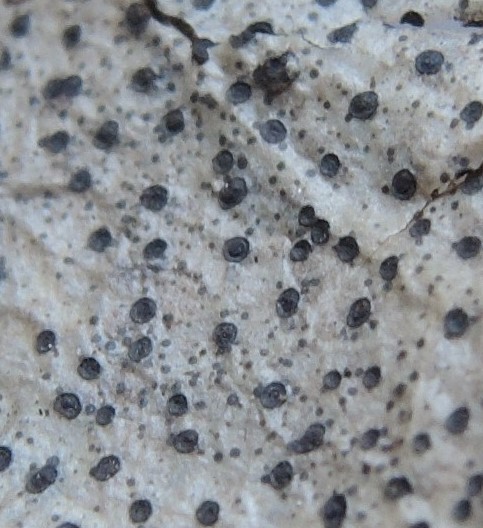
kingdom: Fungi
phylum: Ascomycota
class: Dothideomycetes
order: Microthyriales
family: Microthyriaceae
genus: Microthyrium
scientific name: Microthyrium ciliatum
